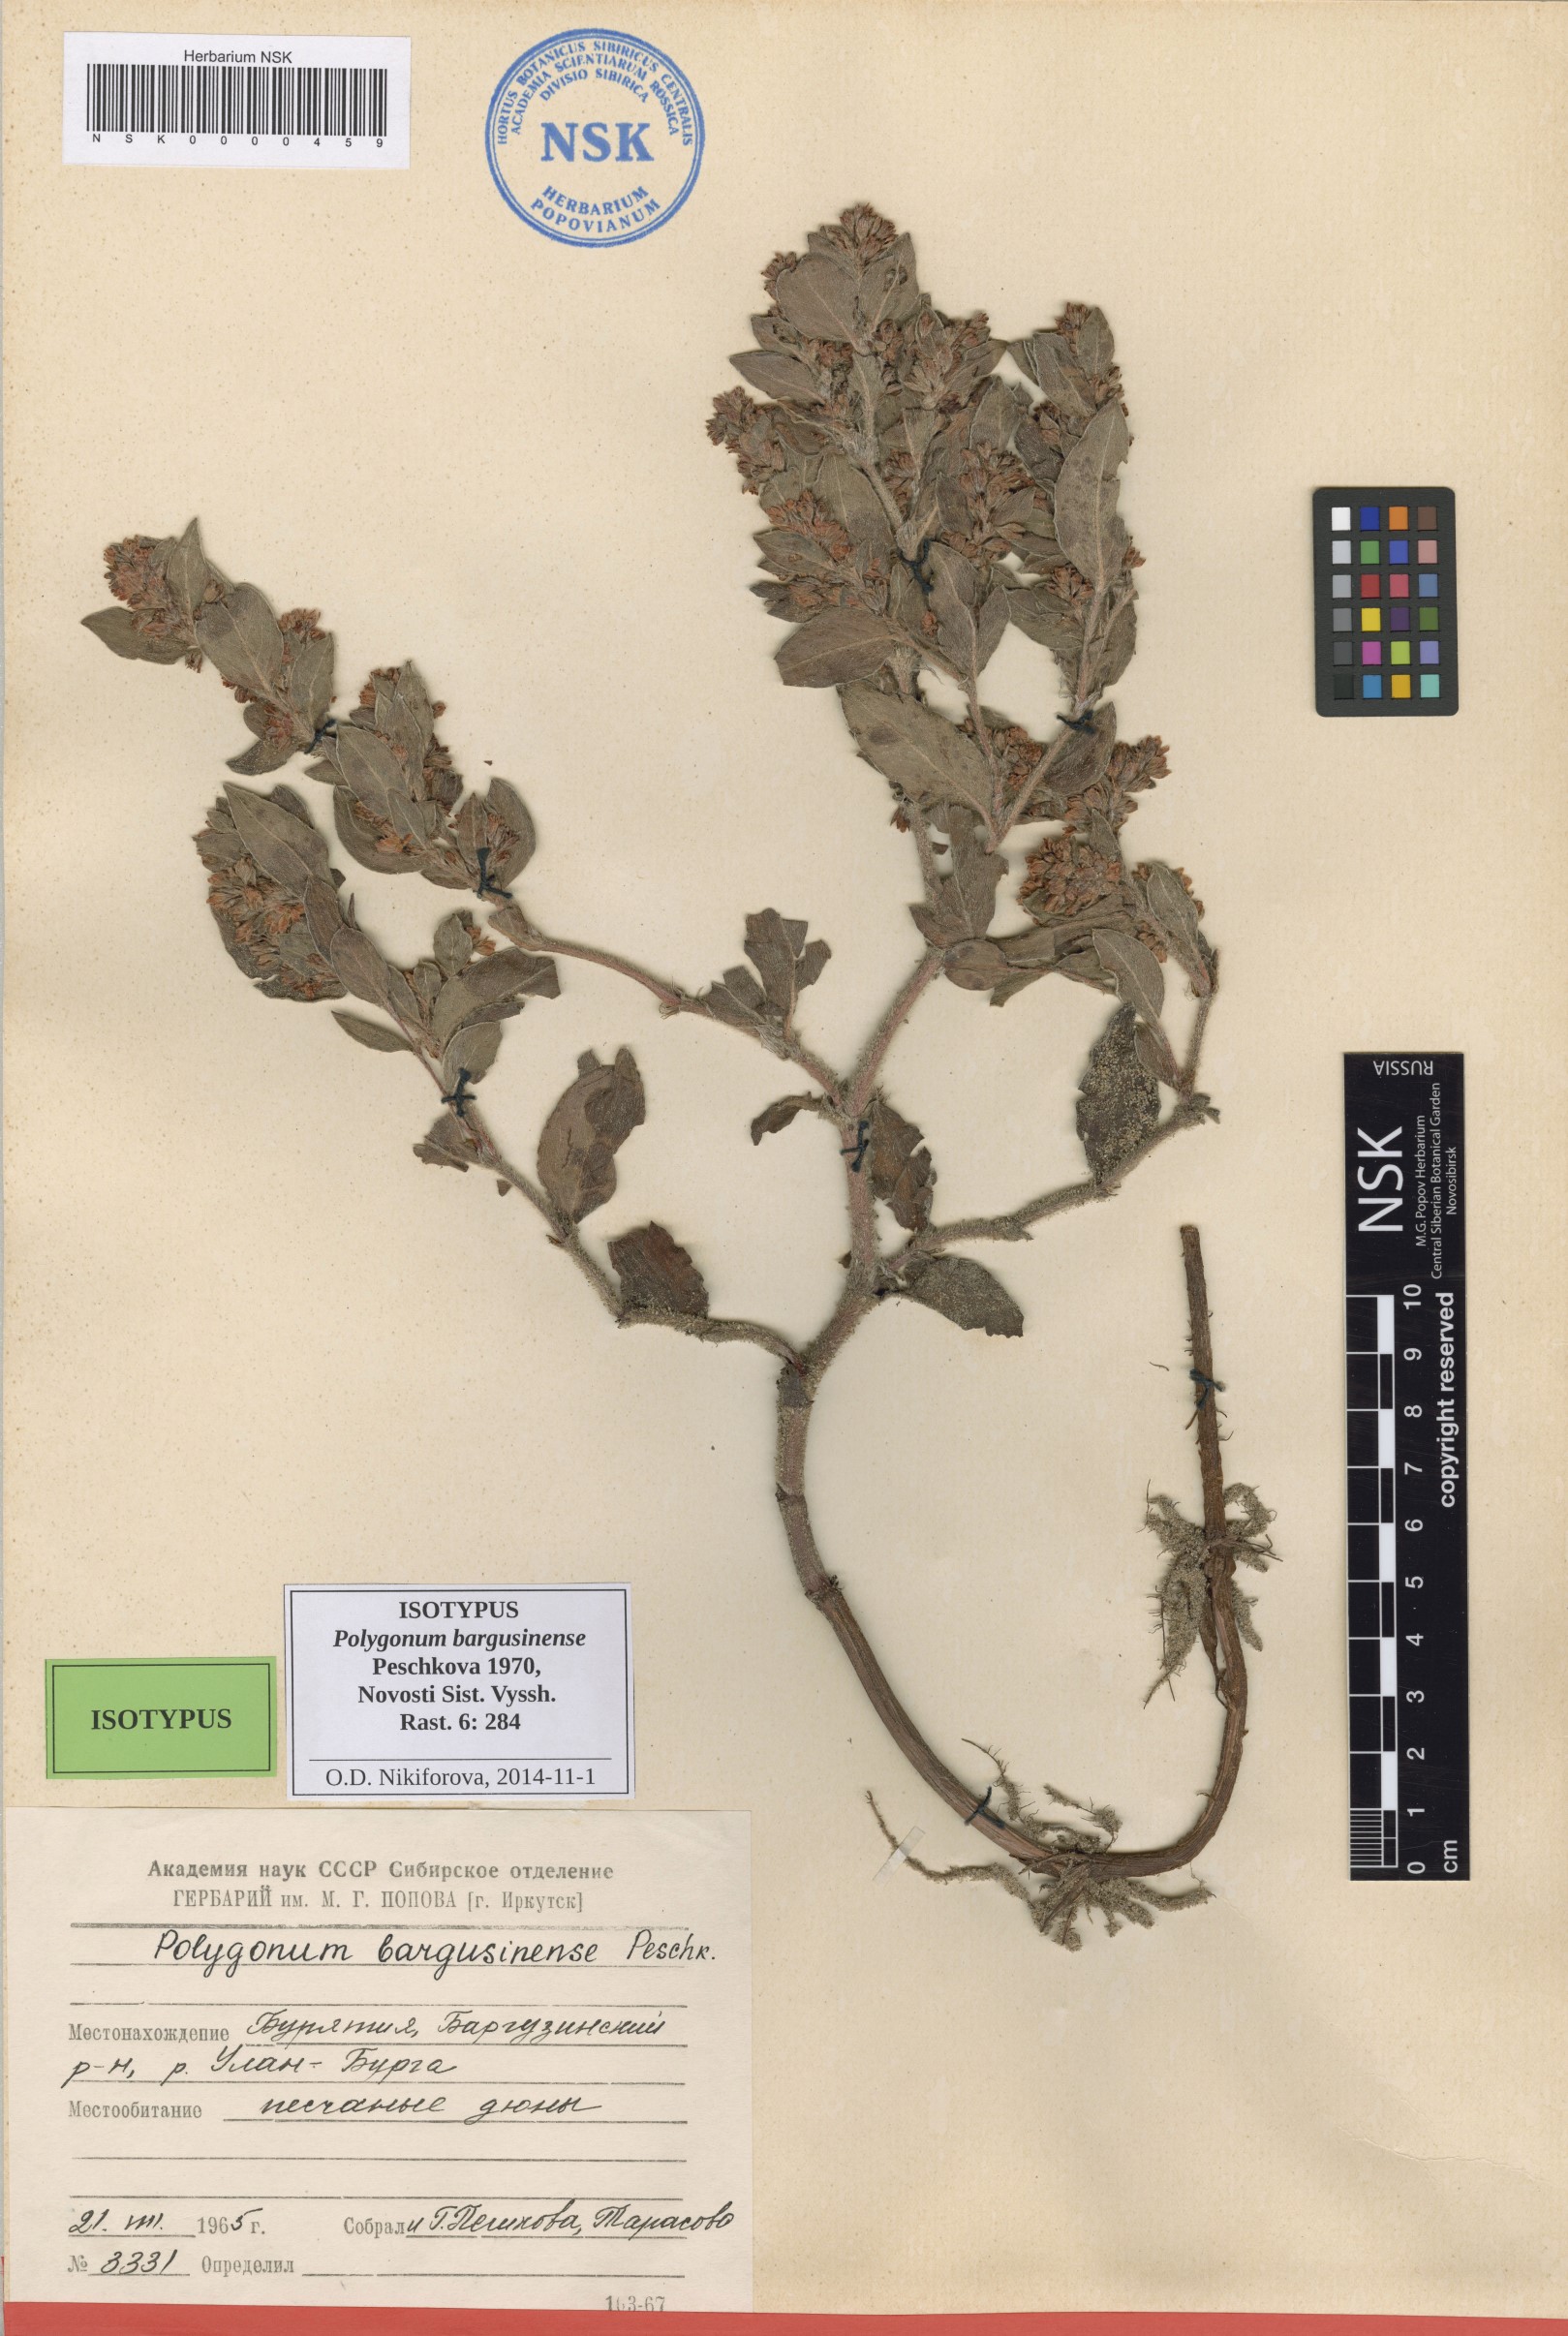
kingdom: Plantae
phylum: Tracheophyta
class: Magnoliopsida
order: Caryophyllales
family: Polygonaceae
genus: Koenigia
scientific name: Koenigia bargusinensis
